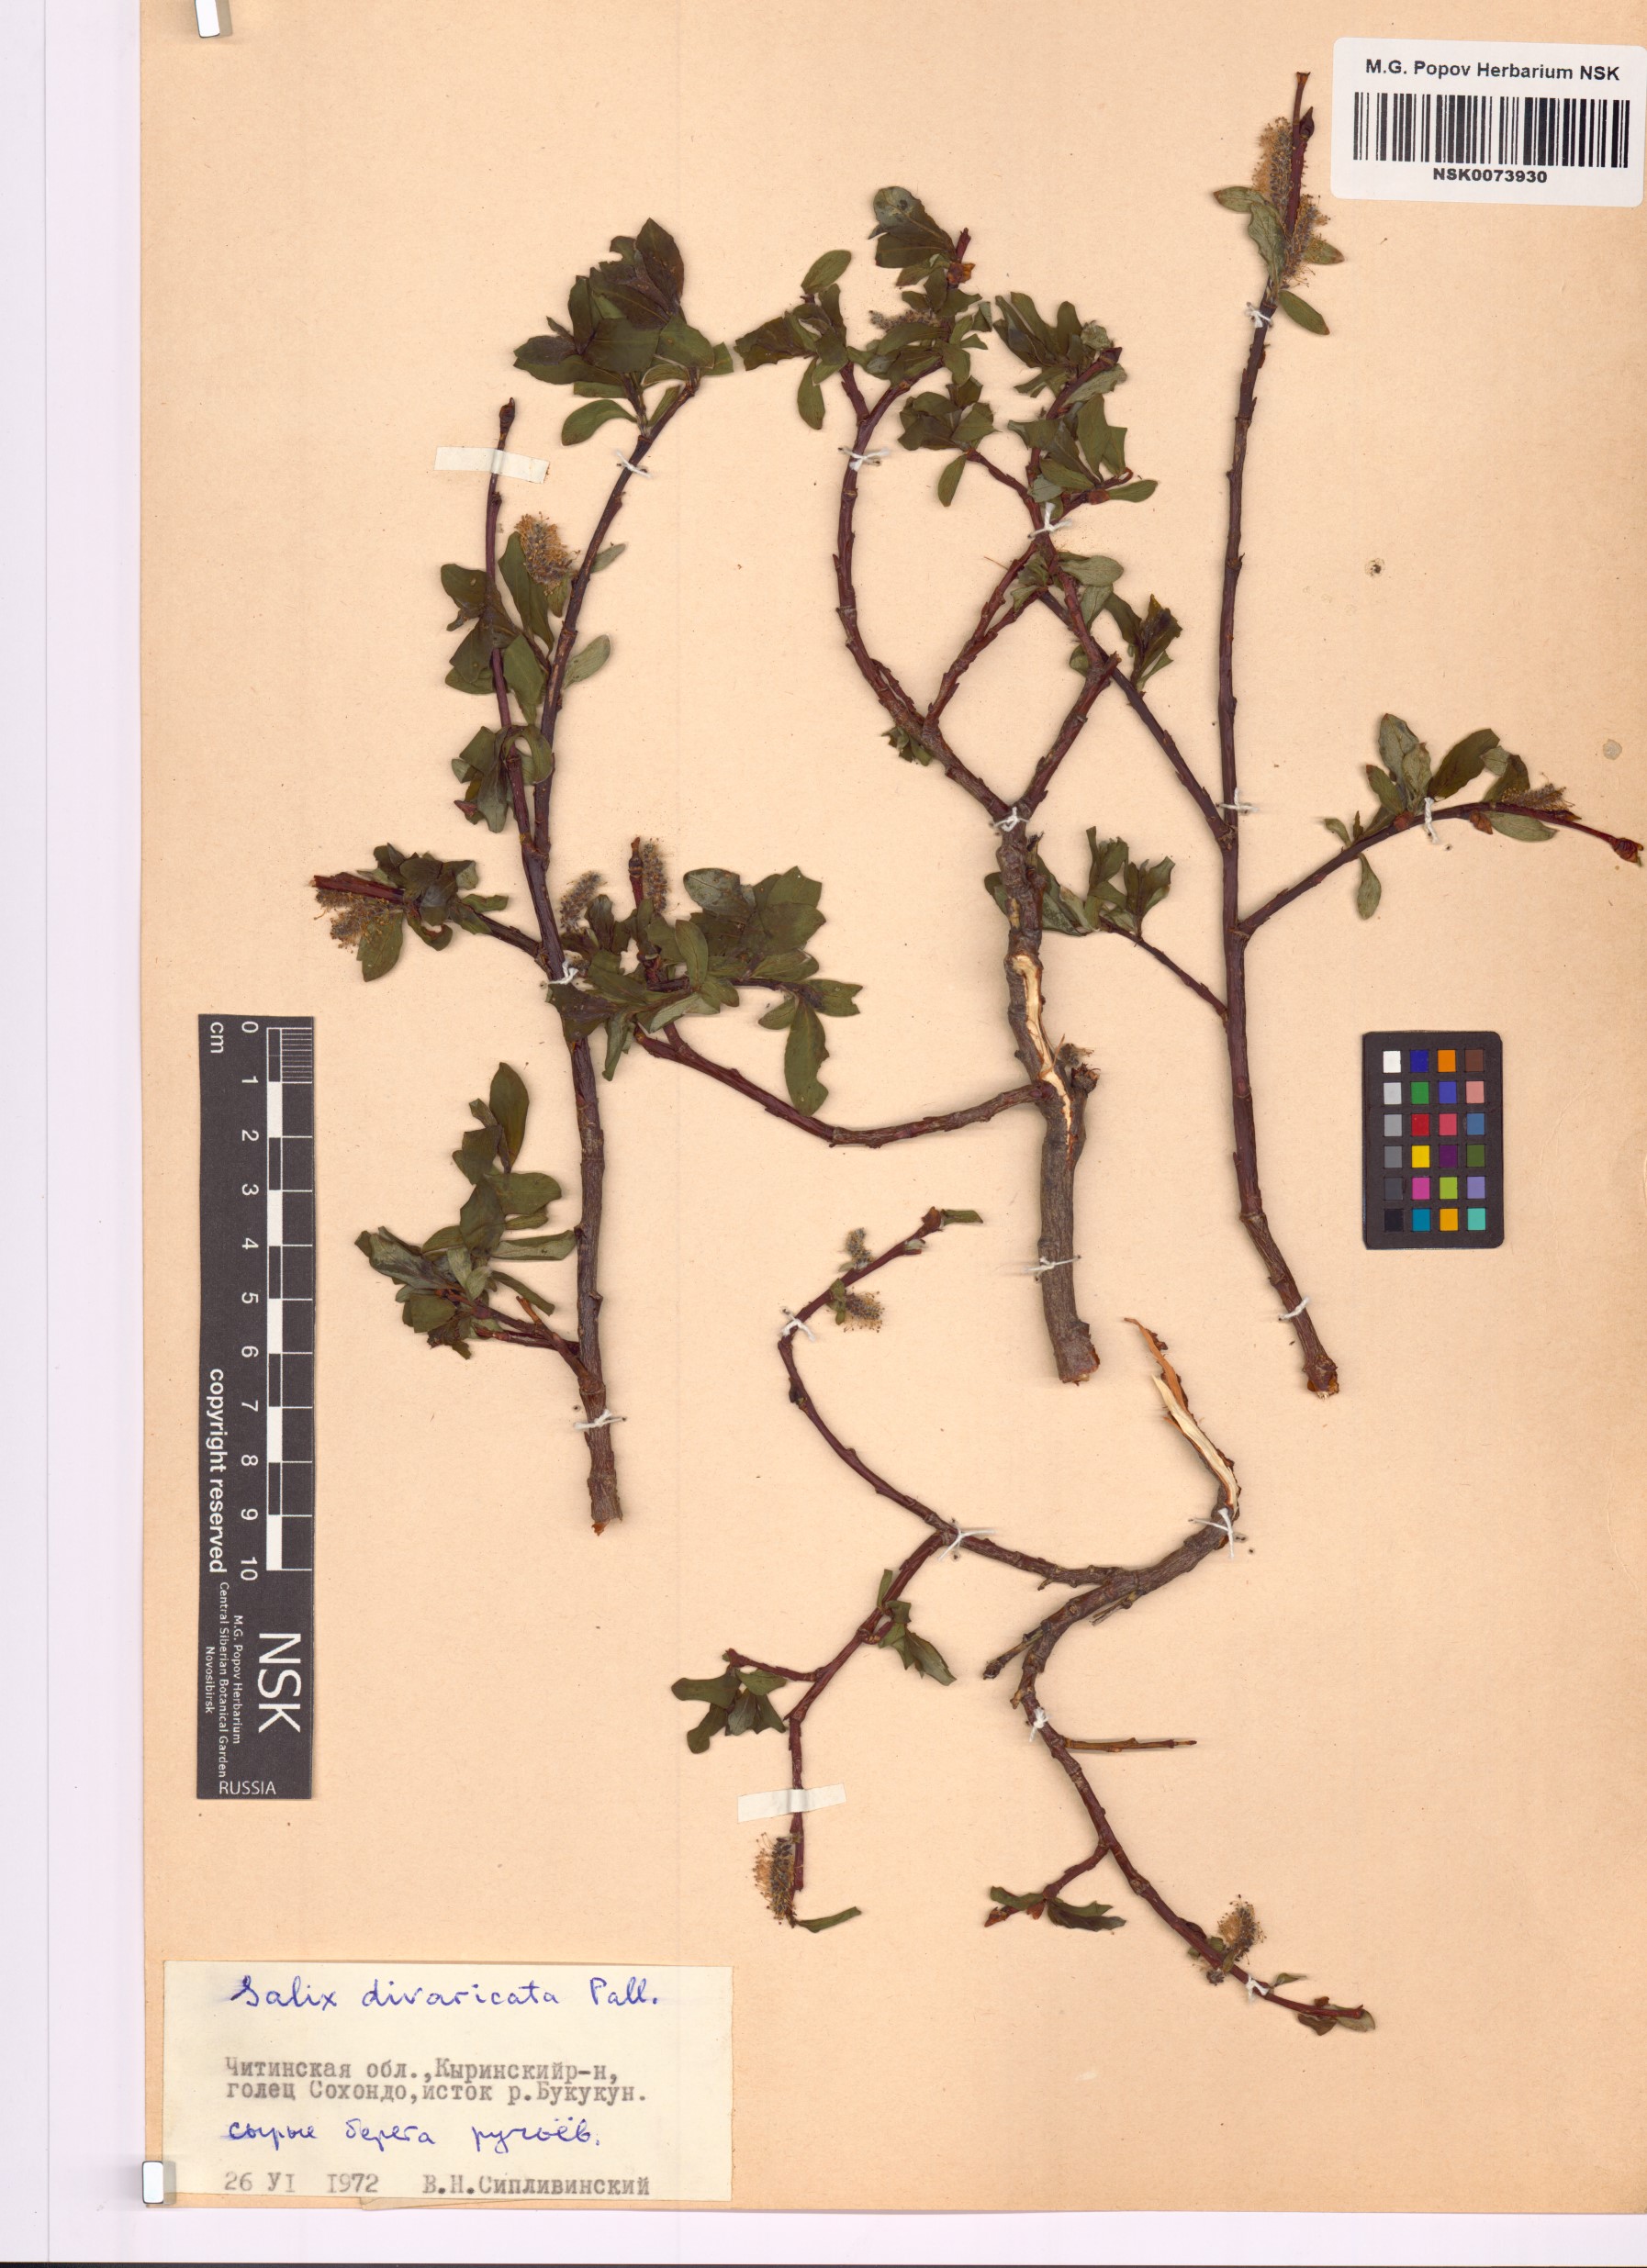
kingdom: Plantae
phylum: Tracheophyta
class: Magnoliopsida
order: Malpighiales
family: Salicaceae
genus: Salix
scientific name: Salix divaricata
